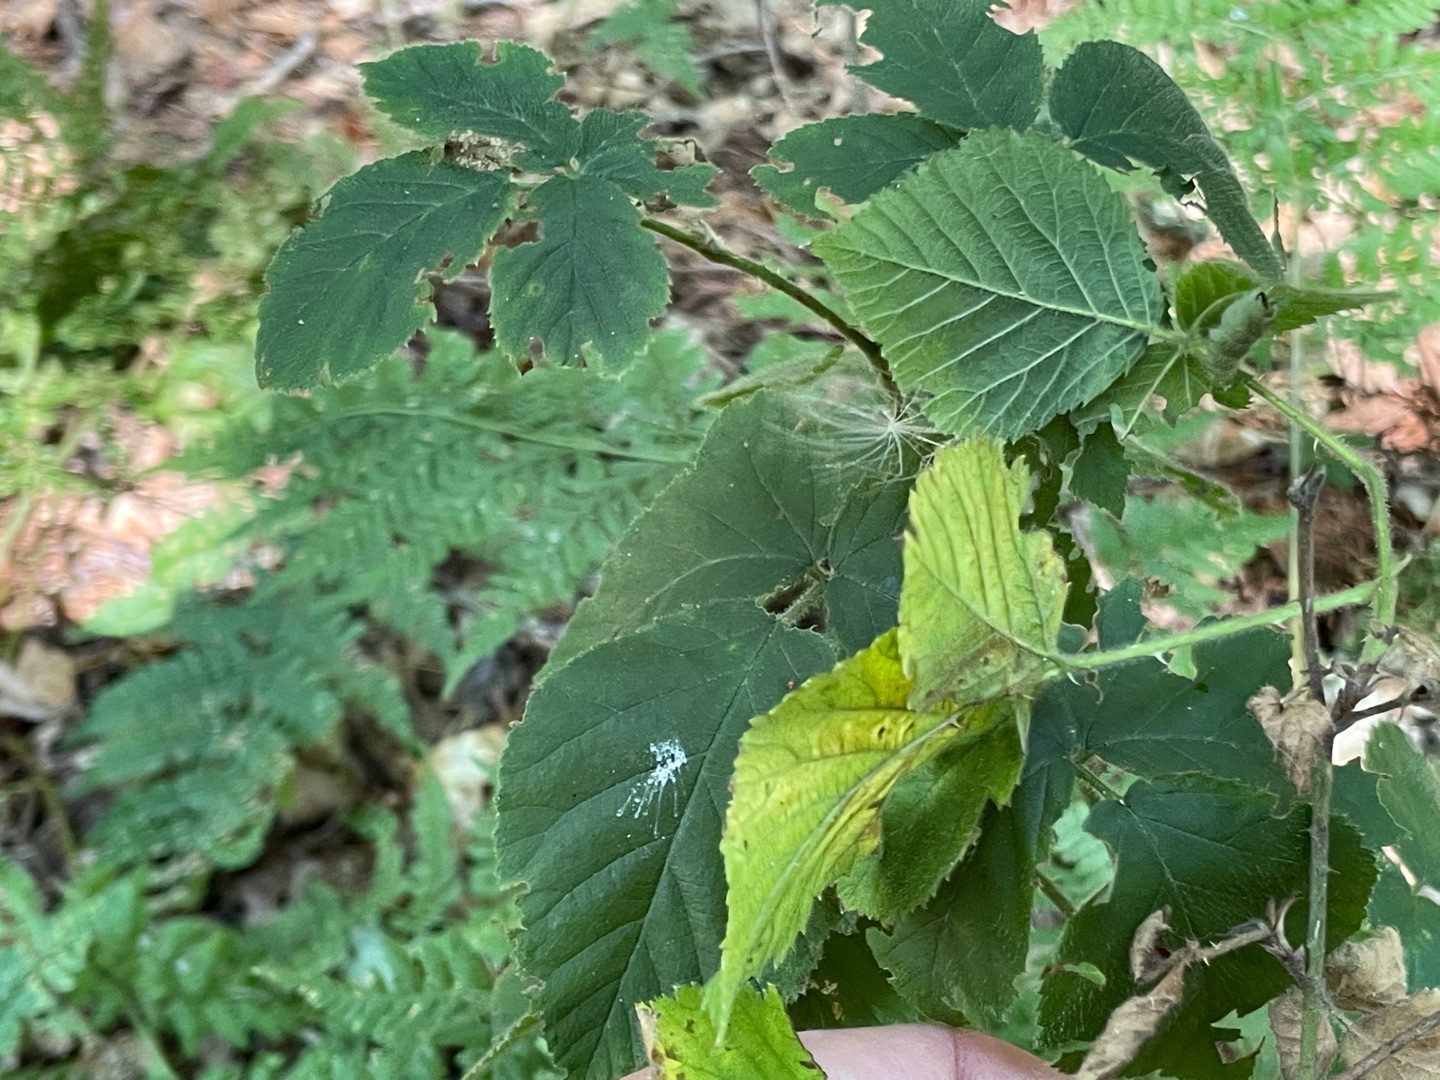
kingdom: Plantae
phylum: Tracheophyta
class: Magnoliopsida
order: Rosales
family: Rosaceae
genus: Rubus
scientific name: Rubus
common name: Klyngerslægten
